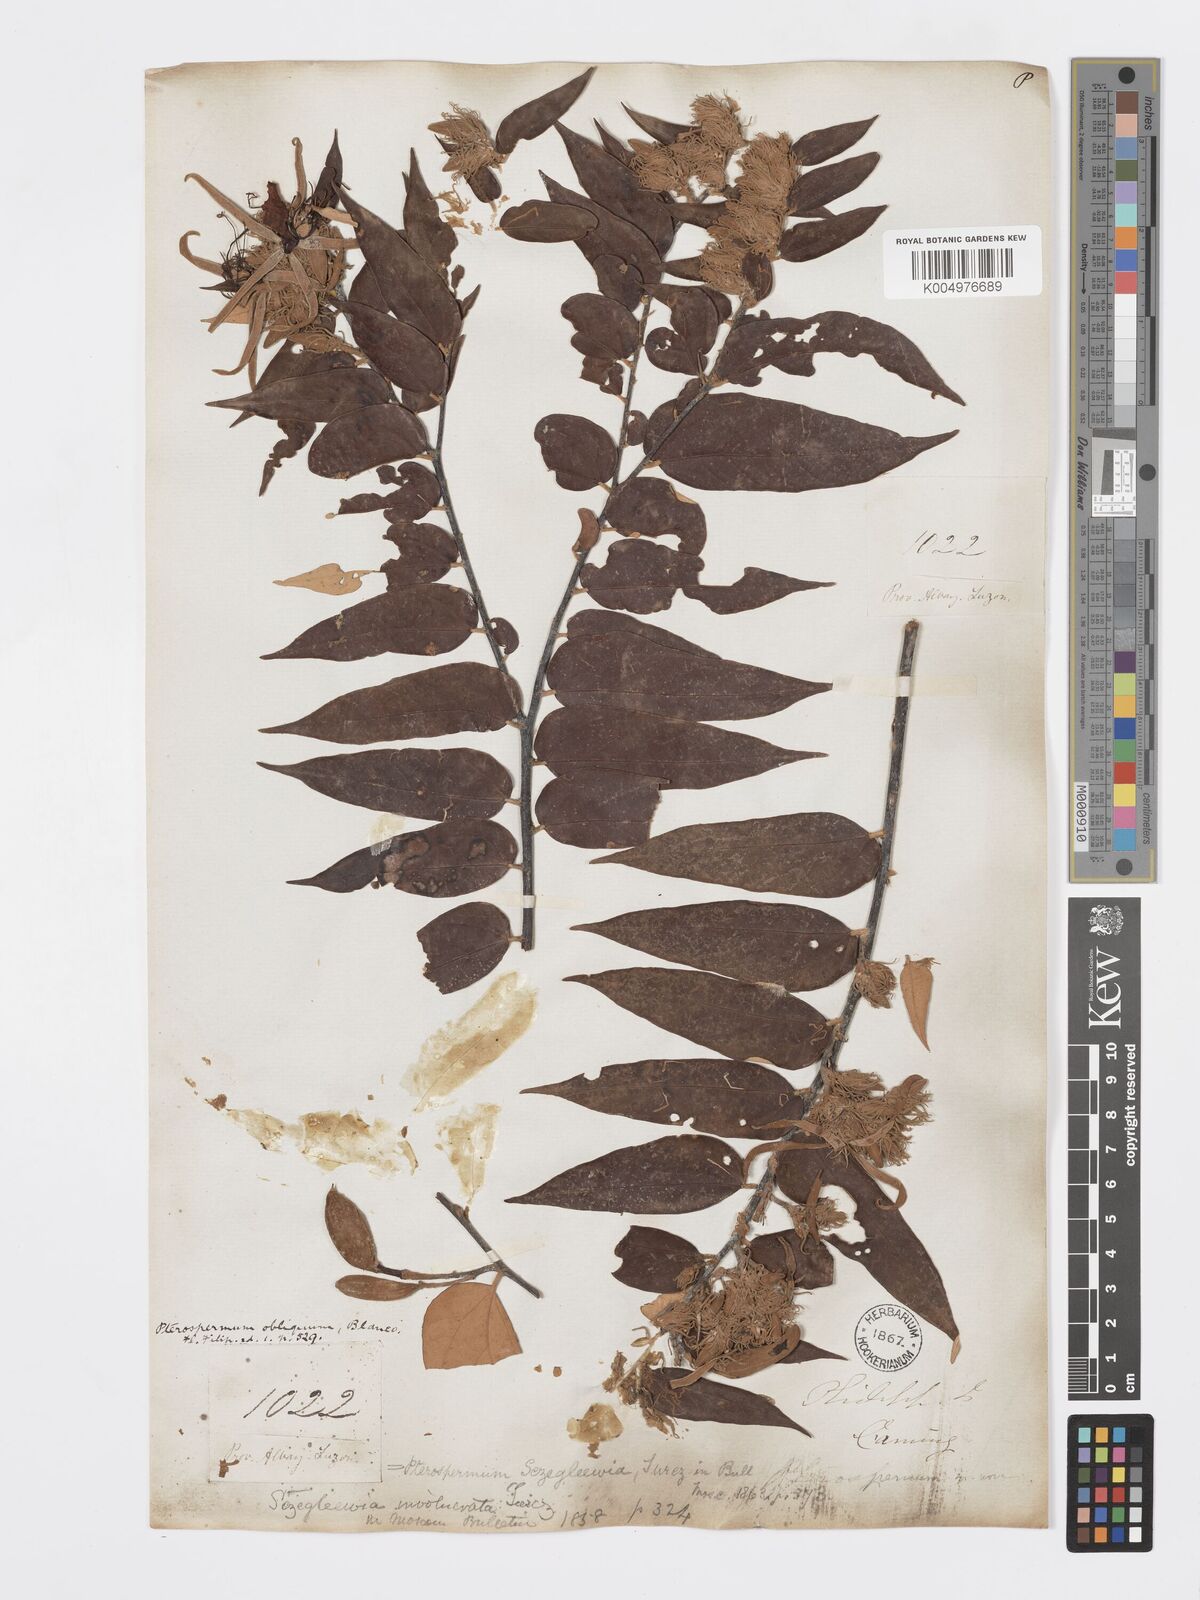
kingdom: Plantae
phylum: Tracheophyta
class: Magnoliopsida
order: Malvales
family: Malvaceae
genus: Pterospermum
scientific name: Pterospermum obliquum
